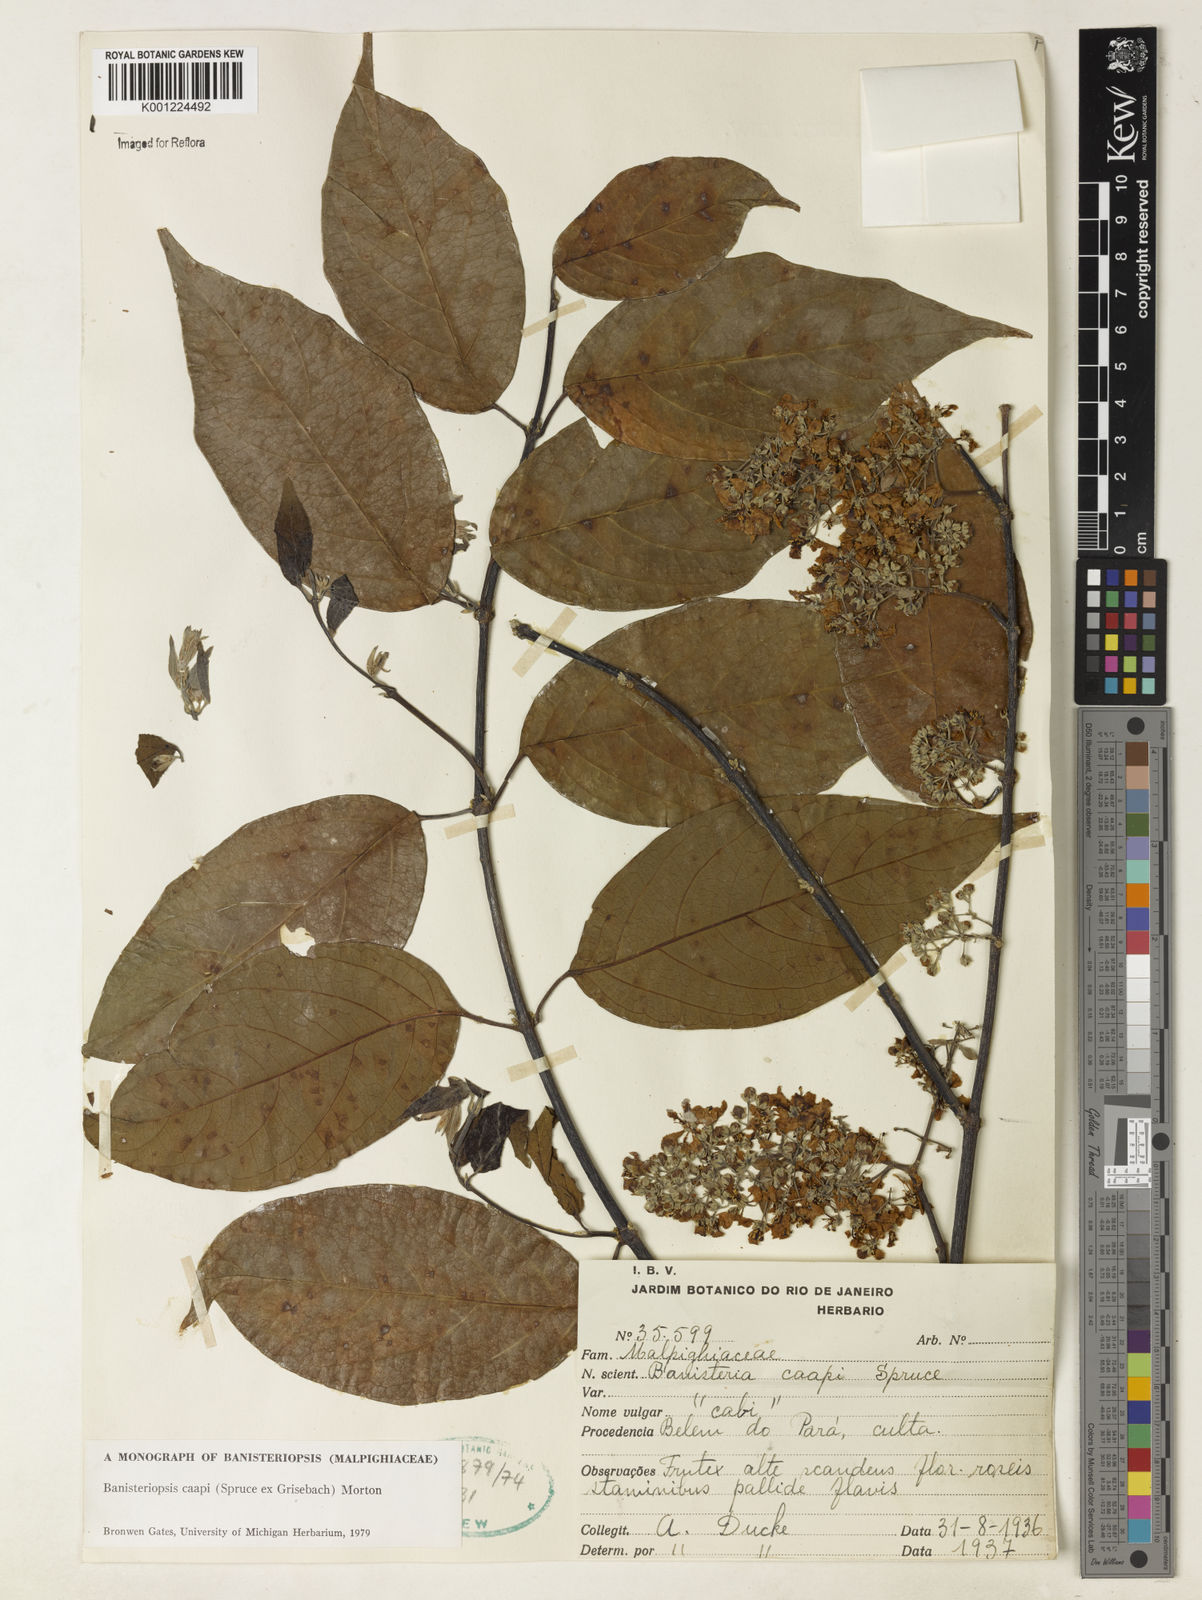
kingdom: Plantae
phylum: Tracheophyta
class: Magnoliopsida
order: Malpighiales
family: Malpighiaceae
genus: Banisteriopsis
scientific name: Banisteriopsis caapi
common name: Soulvine
